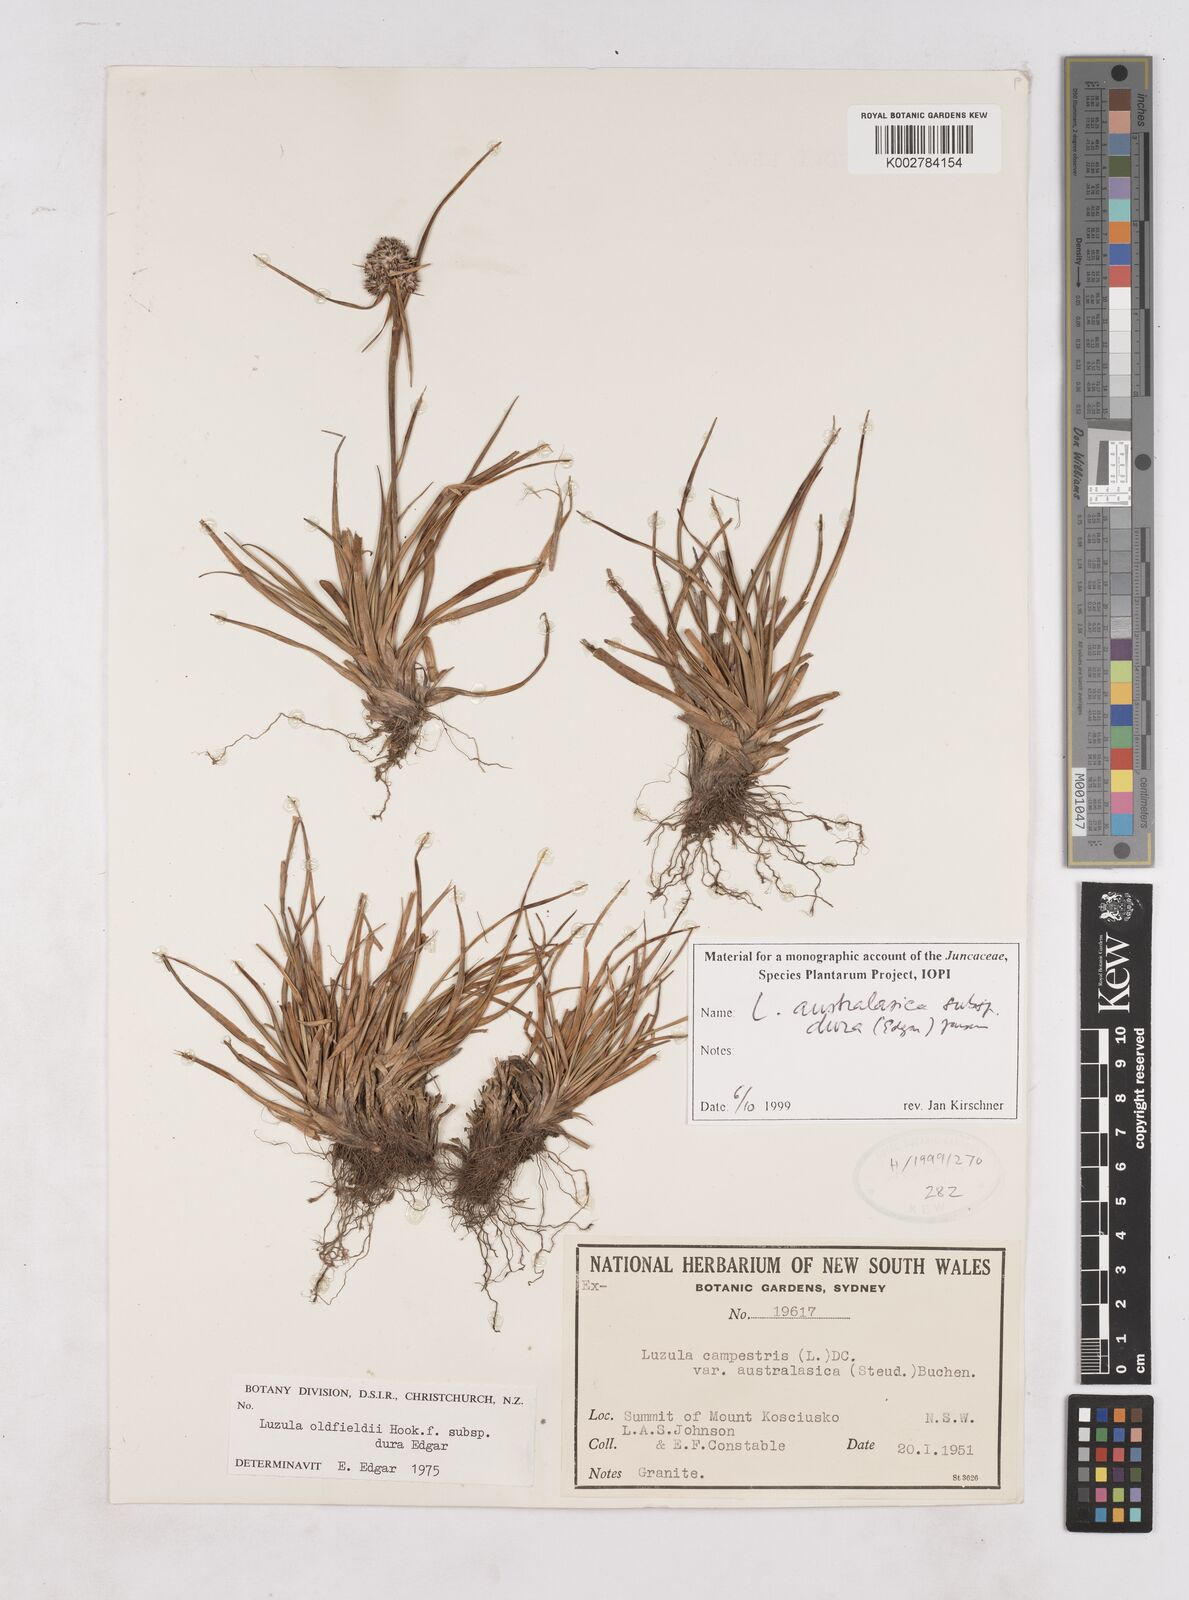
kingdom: Plantae
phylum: Tracheophyta
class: Liliopsida
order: Poales
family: Juncaceae
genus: Luzula
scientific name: Luzula australasica
